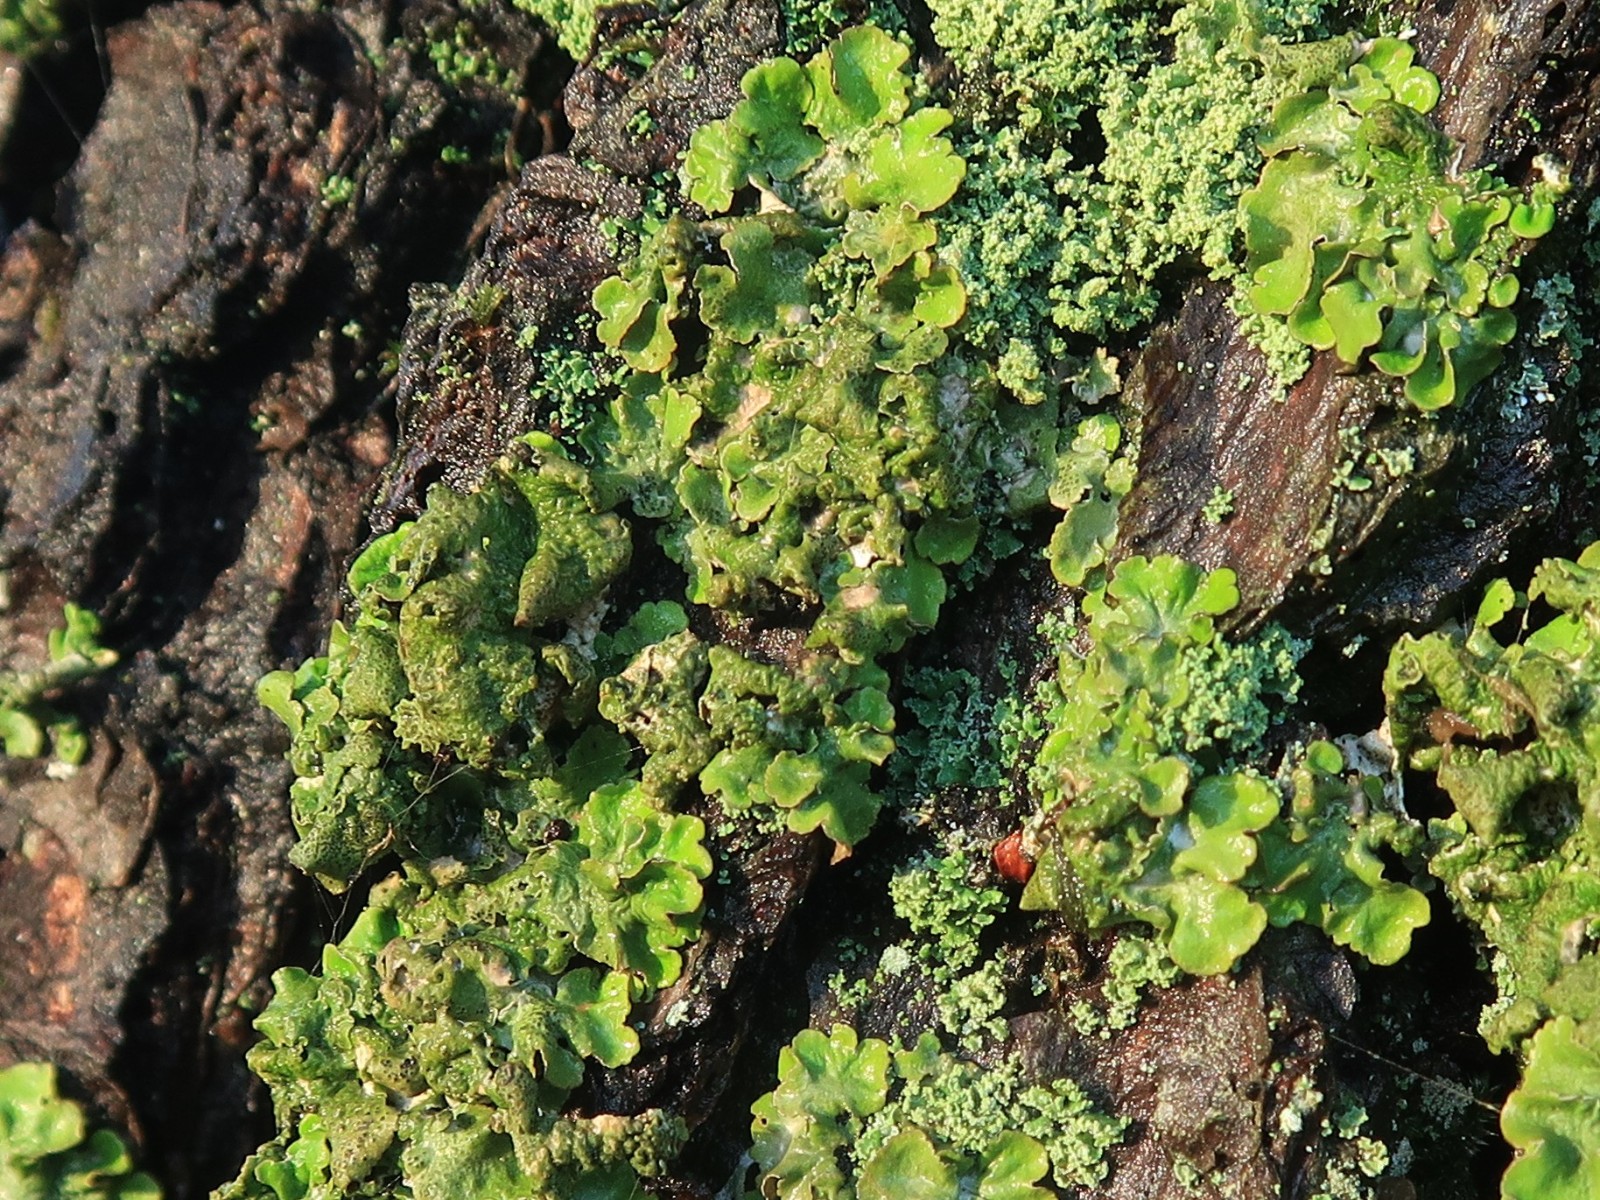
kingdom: Fungi
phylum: Ascomycota
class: Lecanoromycetes
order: Lecanorales
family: Parmeliaceae
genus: Pleurosticta
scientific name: Pleurosticta acetabulum
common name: stor skållav
